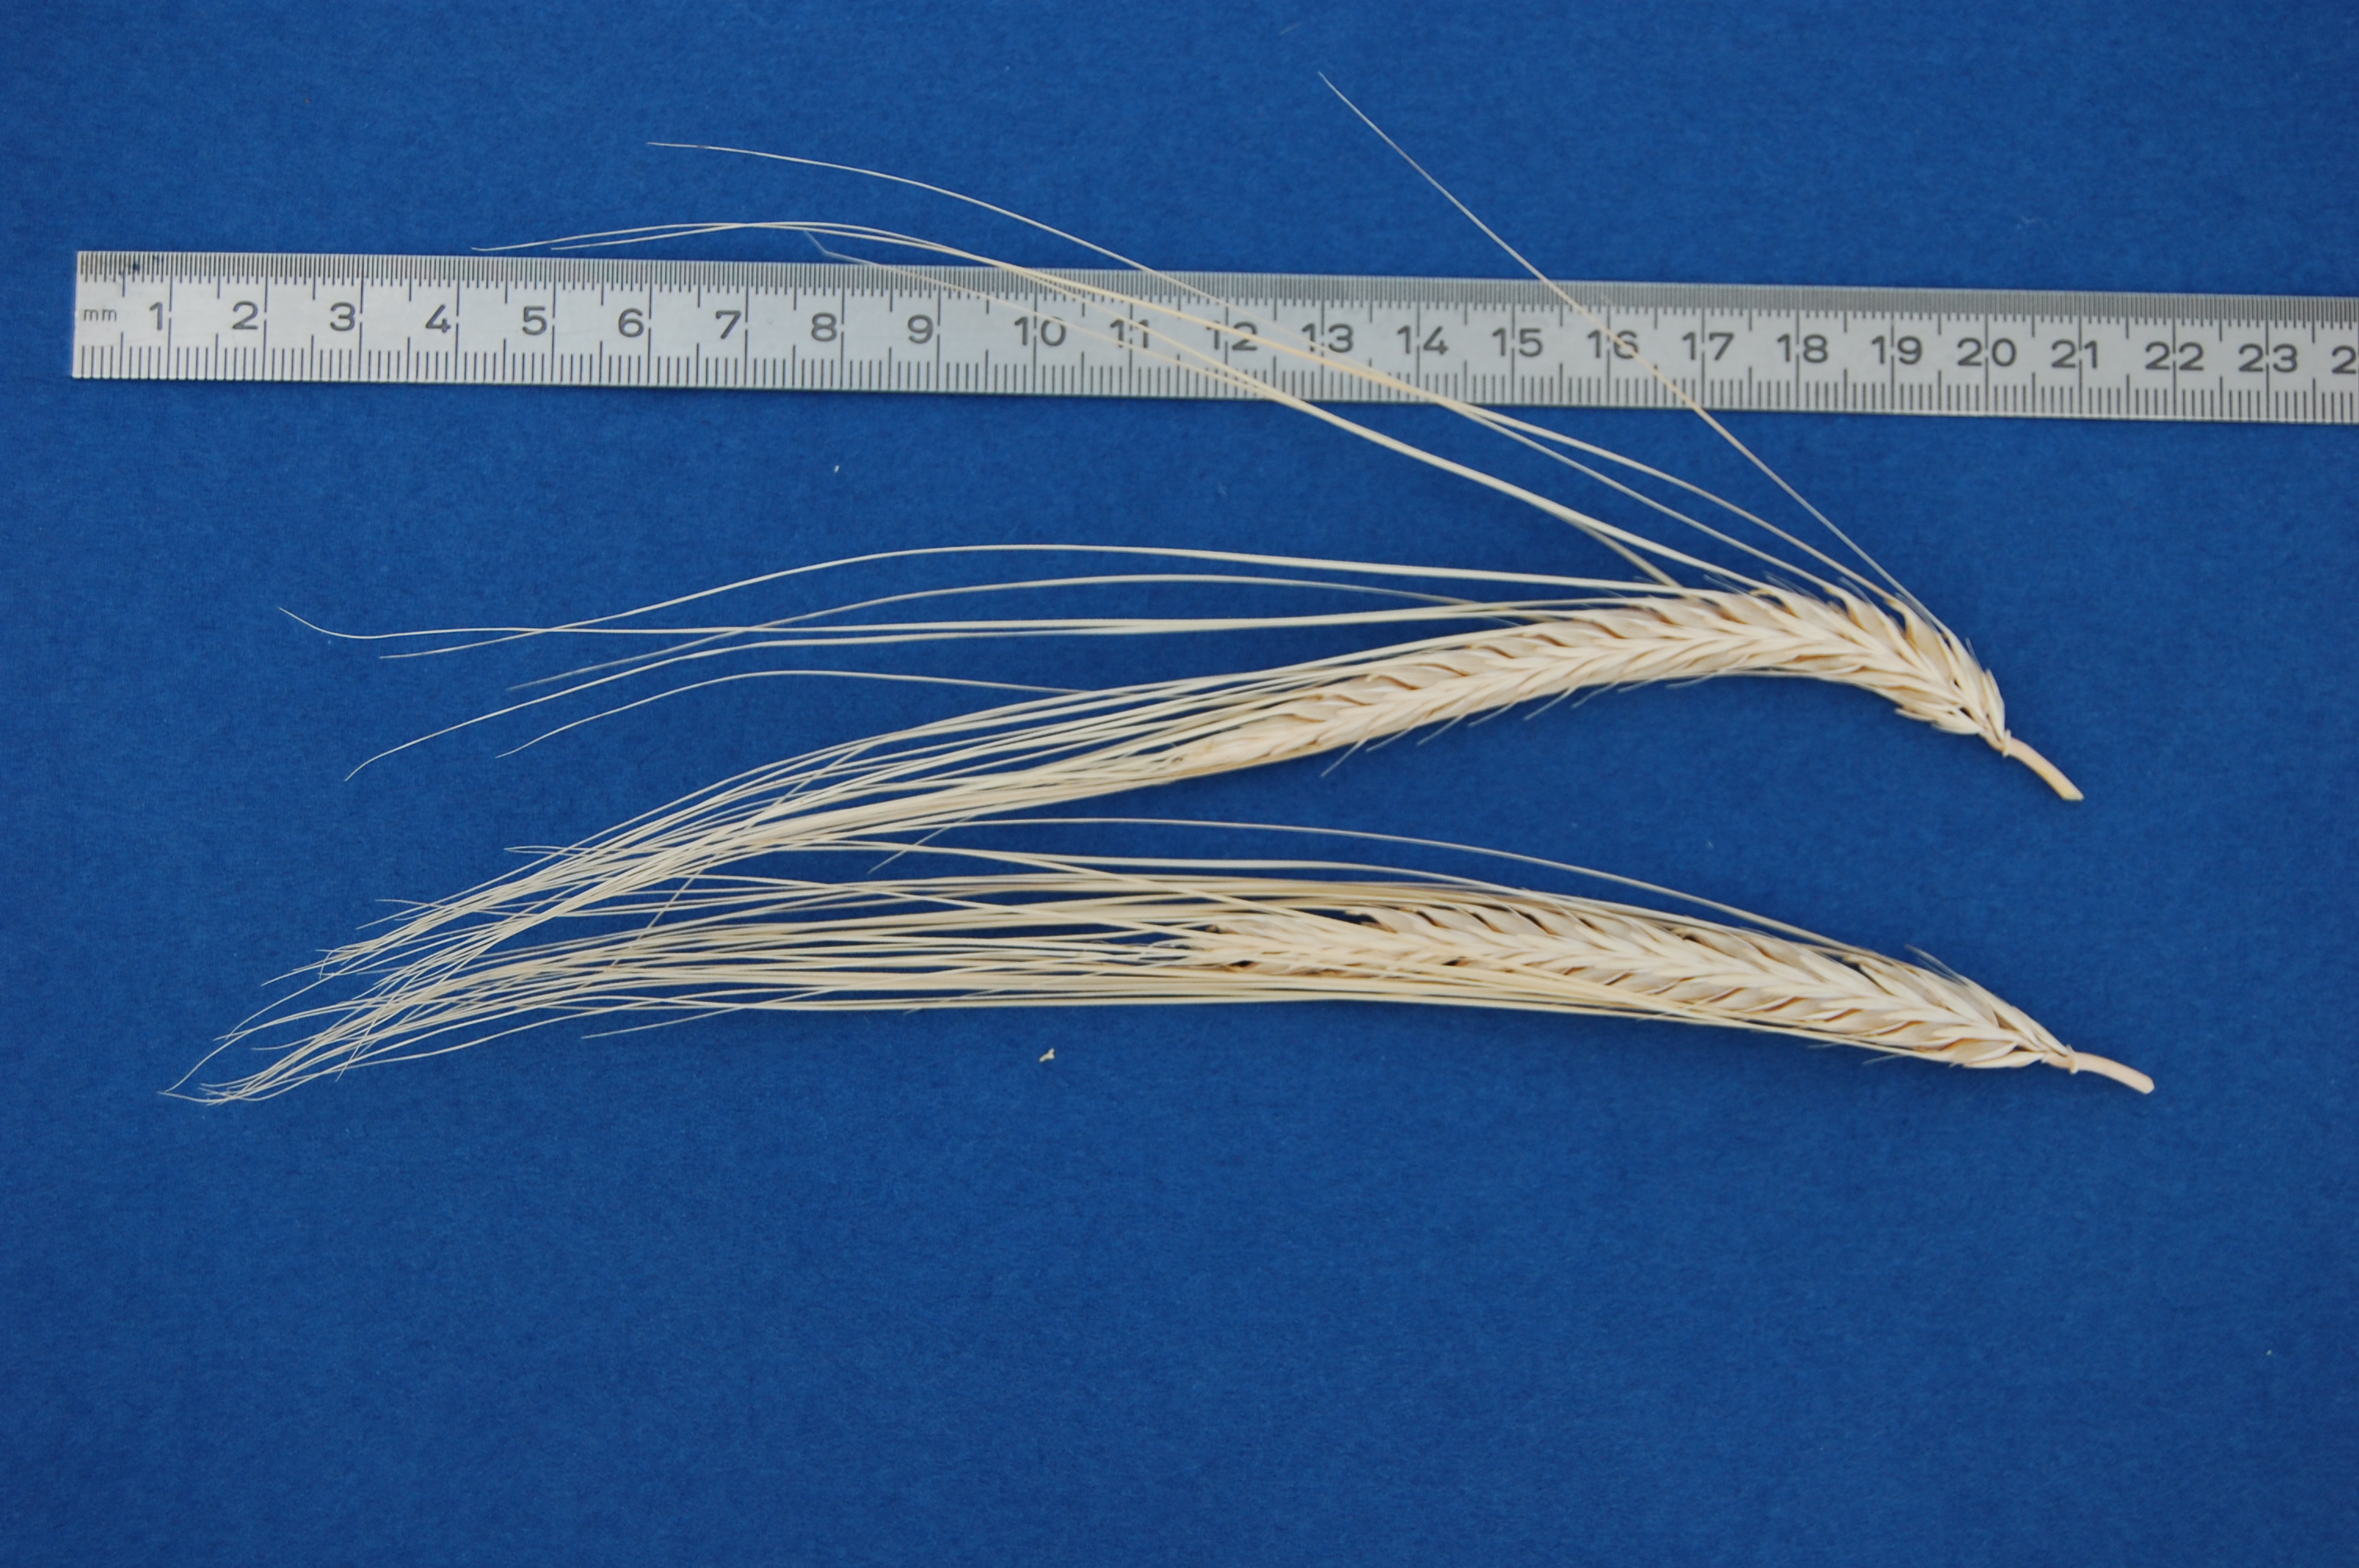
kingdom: Plantae
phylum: Tracheophyta
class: Liliopsida
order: Poales
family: Poaceae
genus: Hordeum
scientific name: Hordeum vulgare
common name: Common barley
